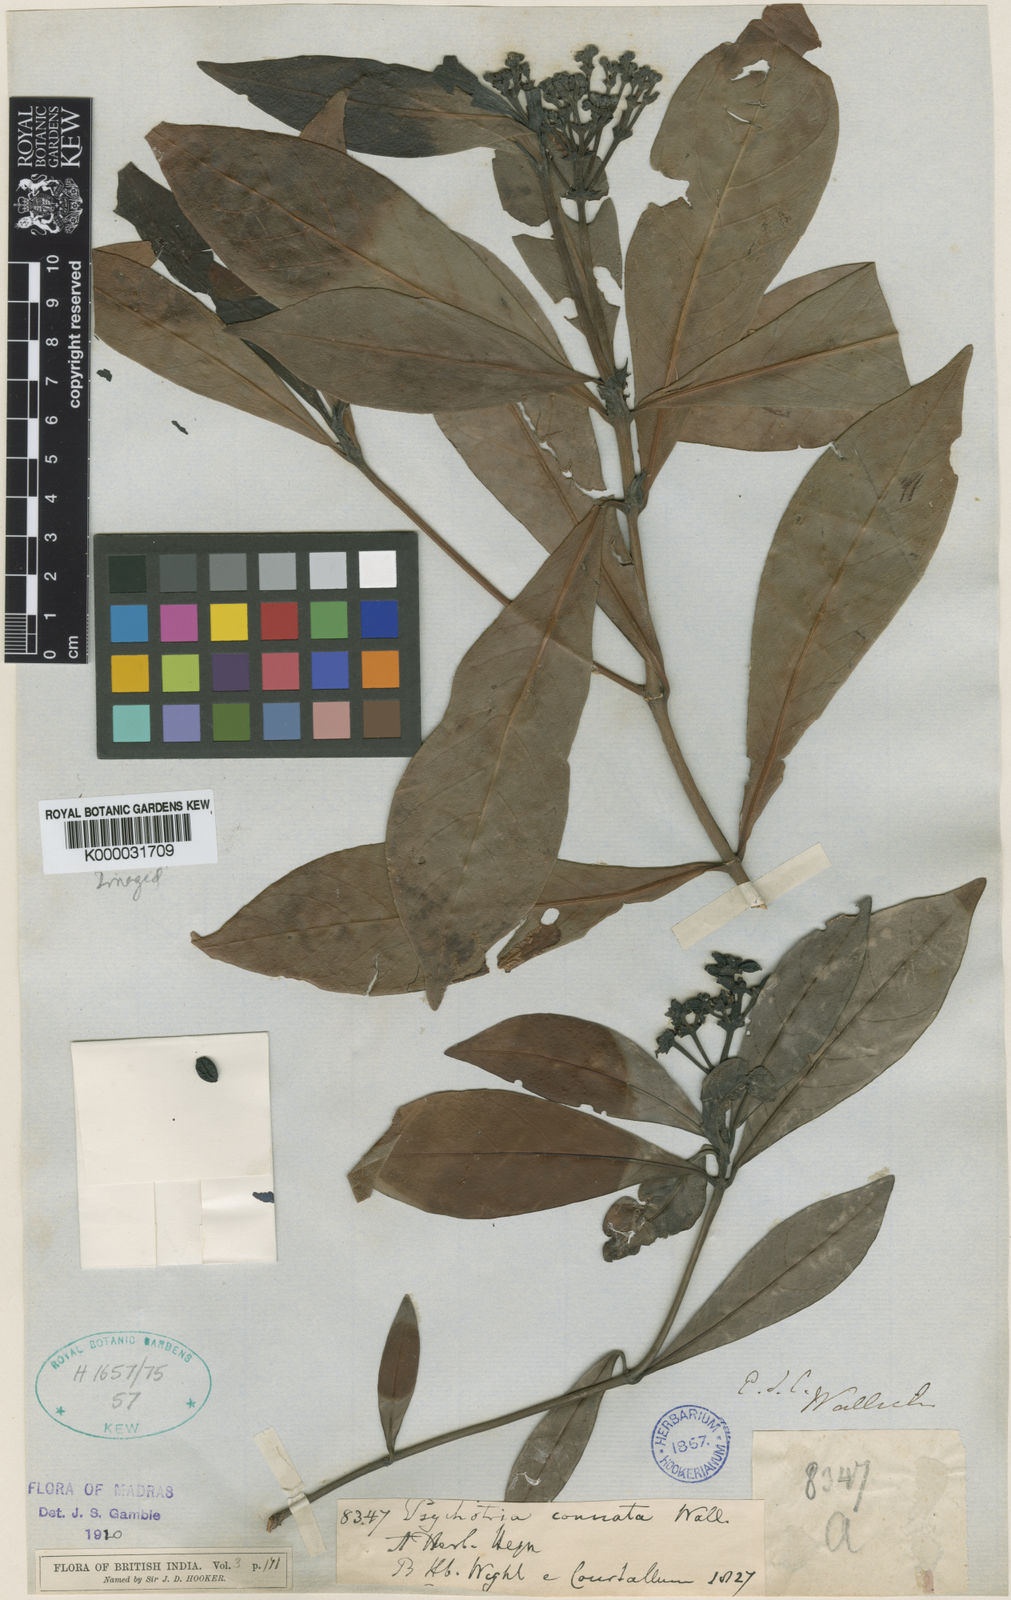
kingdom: Plantae
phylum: Tracheophyta
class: Magnoliopsida
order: Gentianales
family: Rubiaceae
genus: Psychotria
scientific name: Psychotria connata
